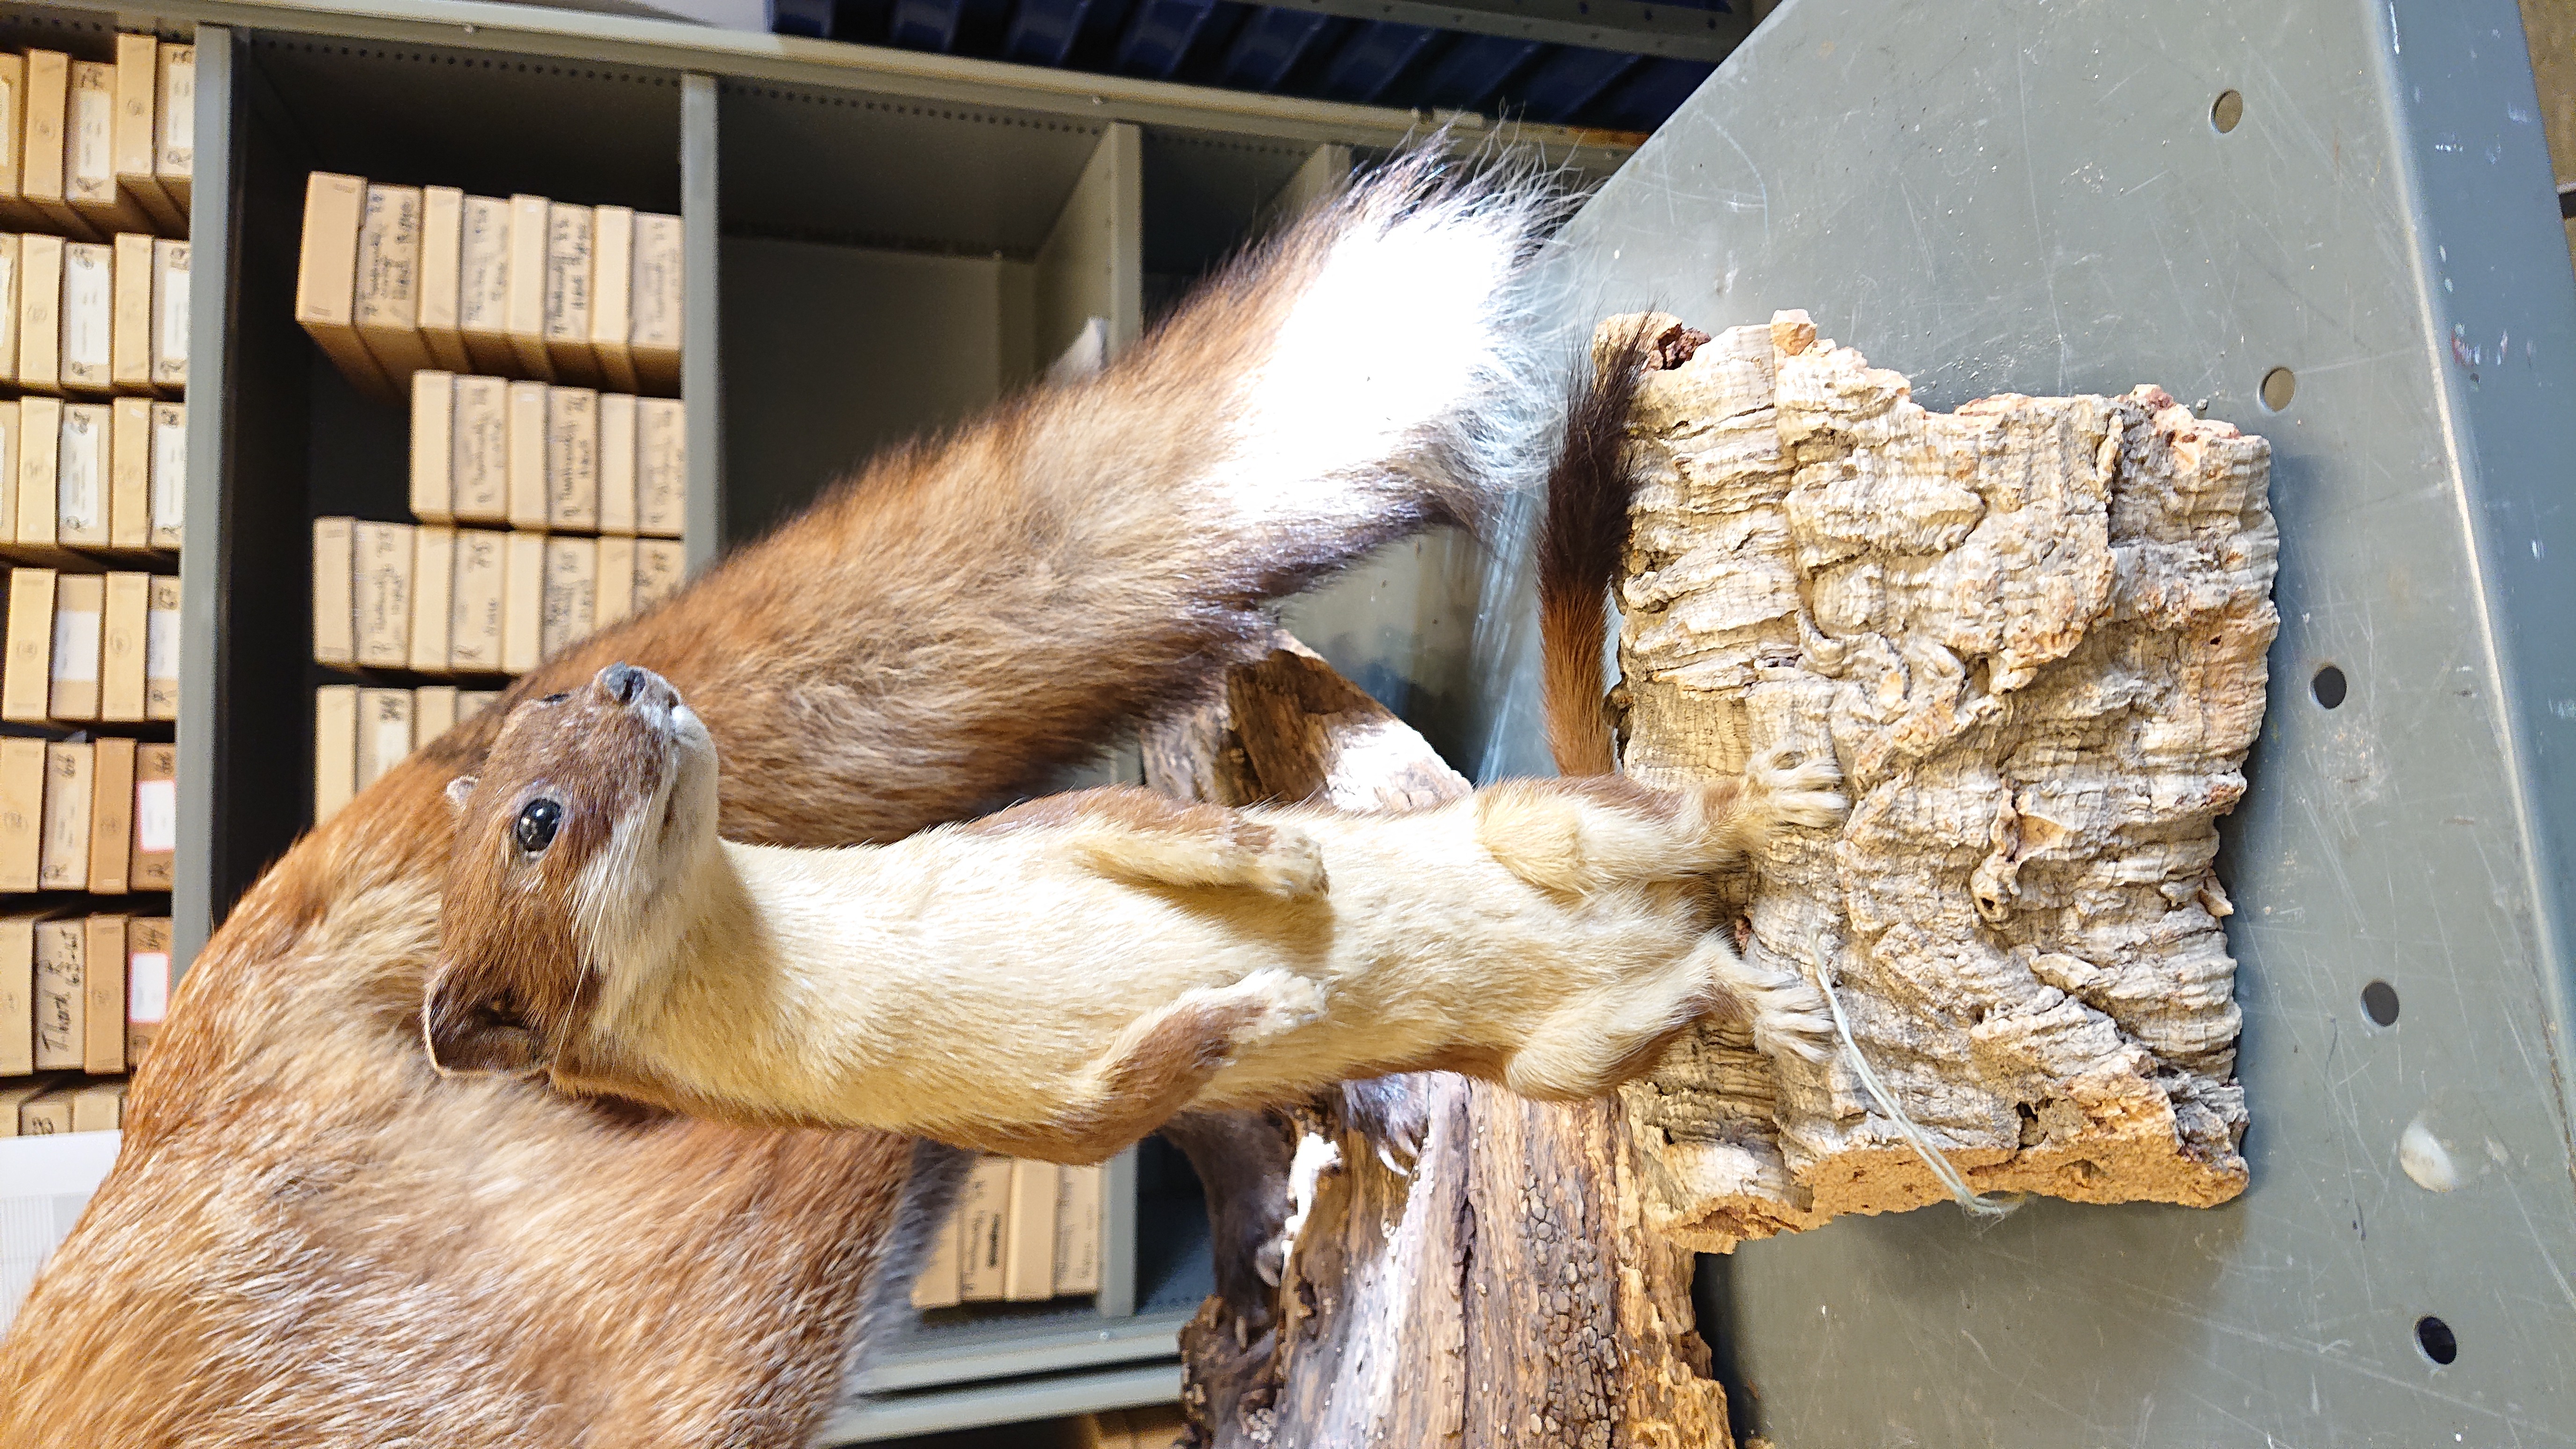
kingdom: Animalia
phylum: Chordata
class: Mammalia
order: Carnivora
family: Mustelidae
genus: Mustela
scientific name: Mustela erminea
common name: Stoat
